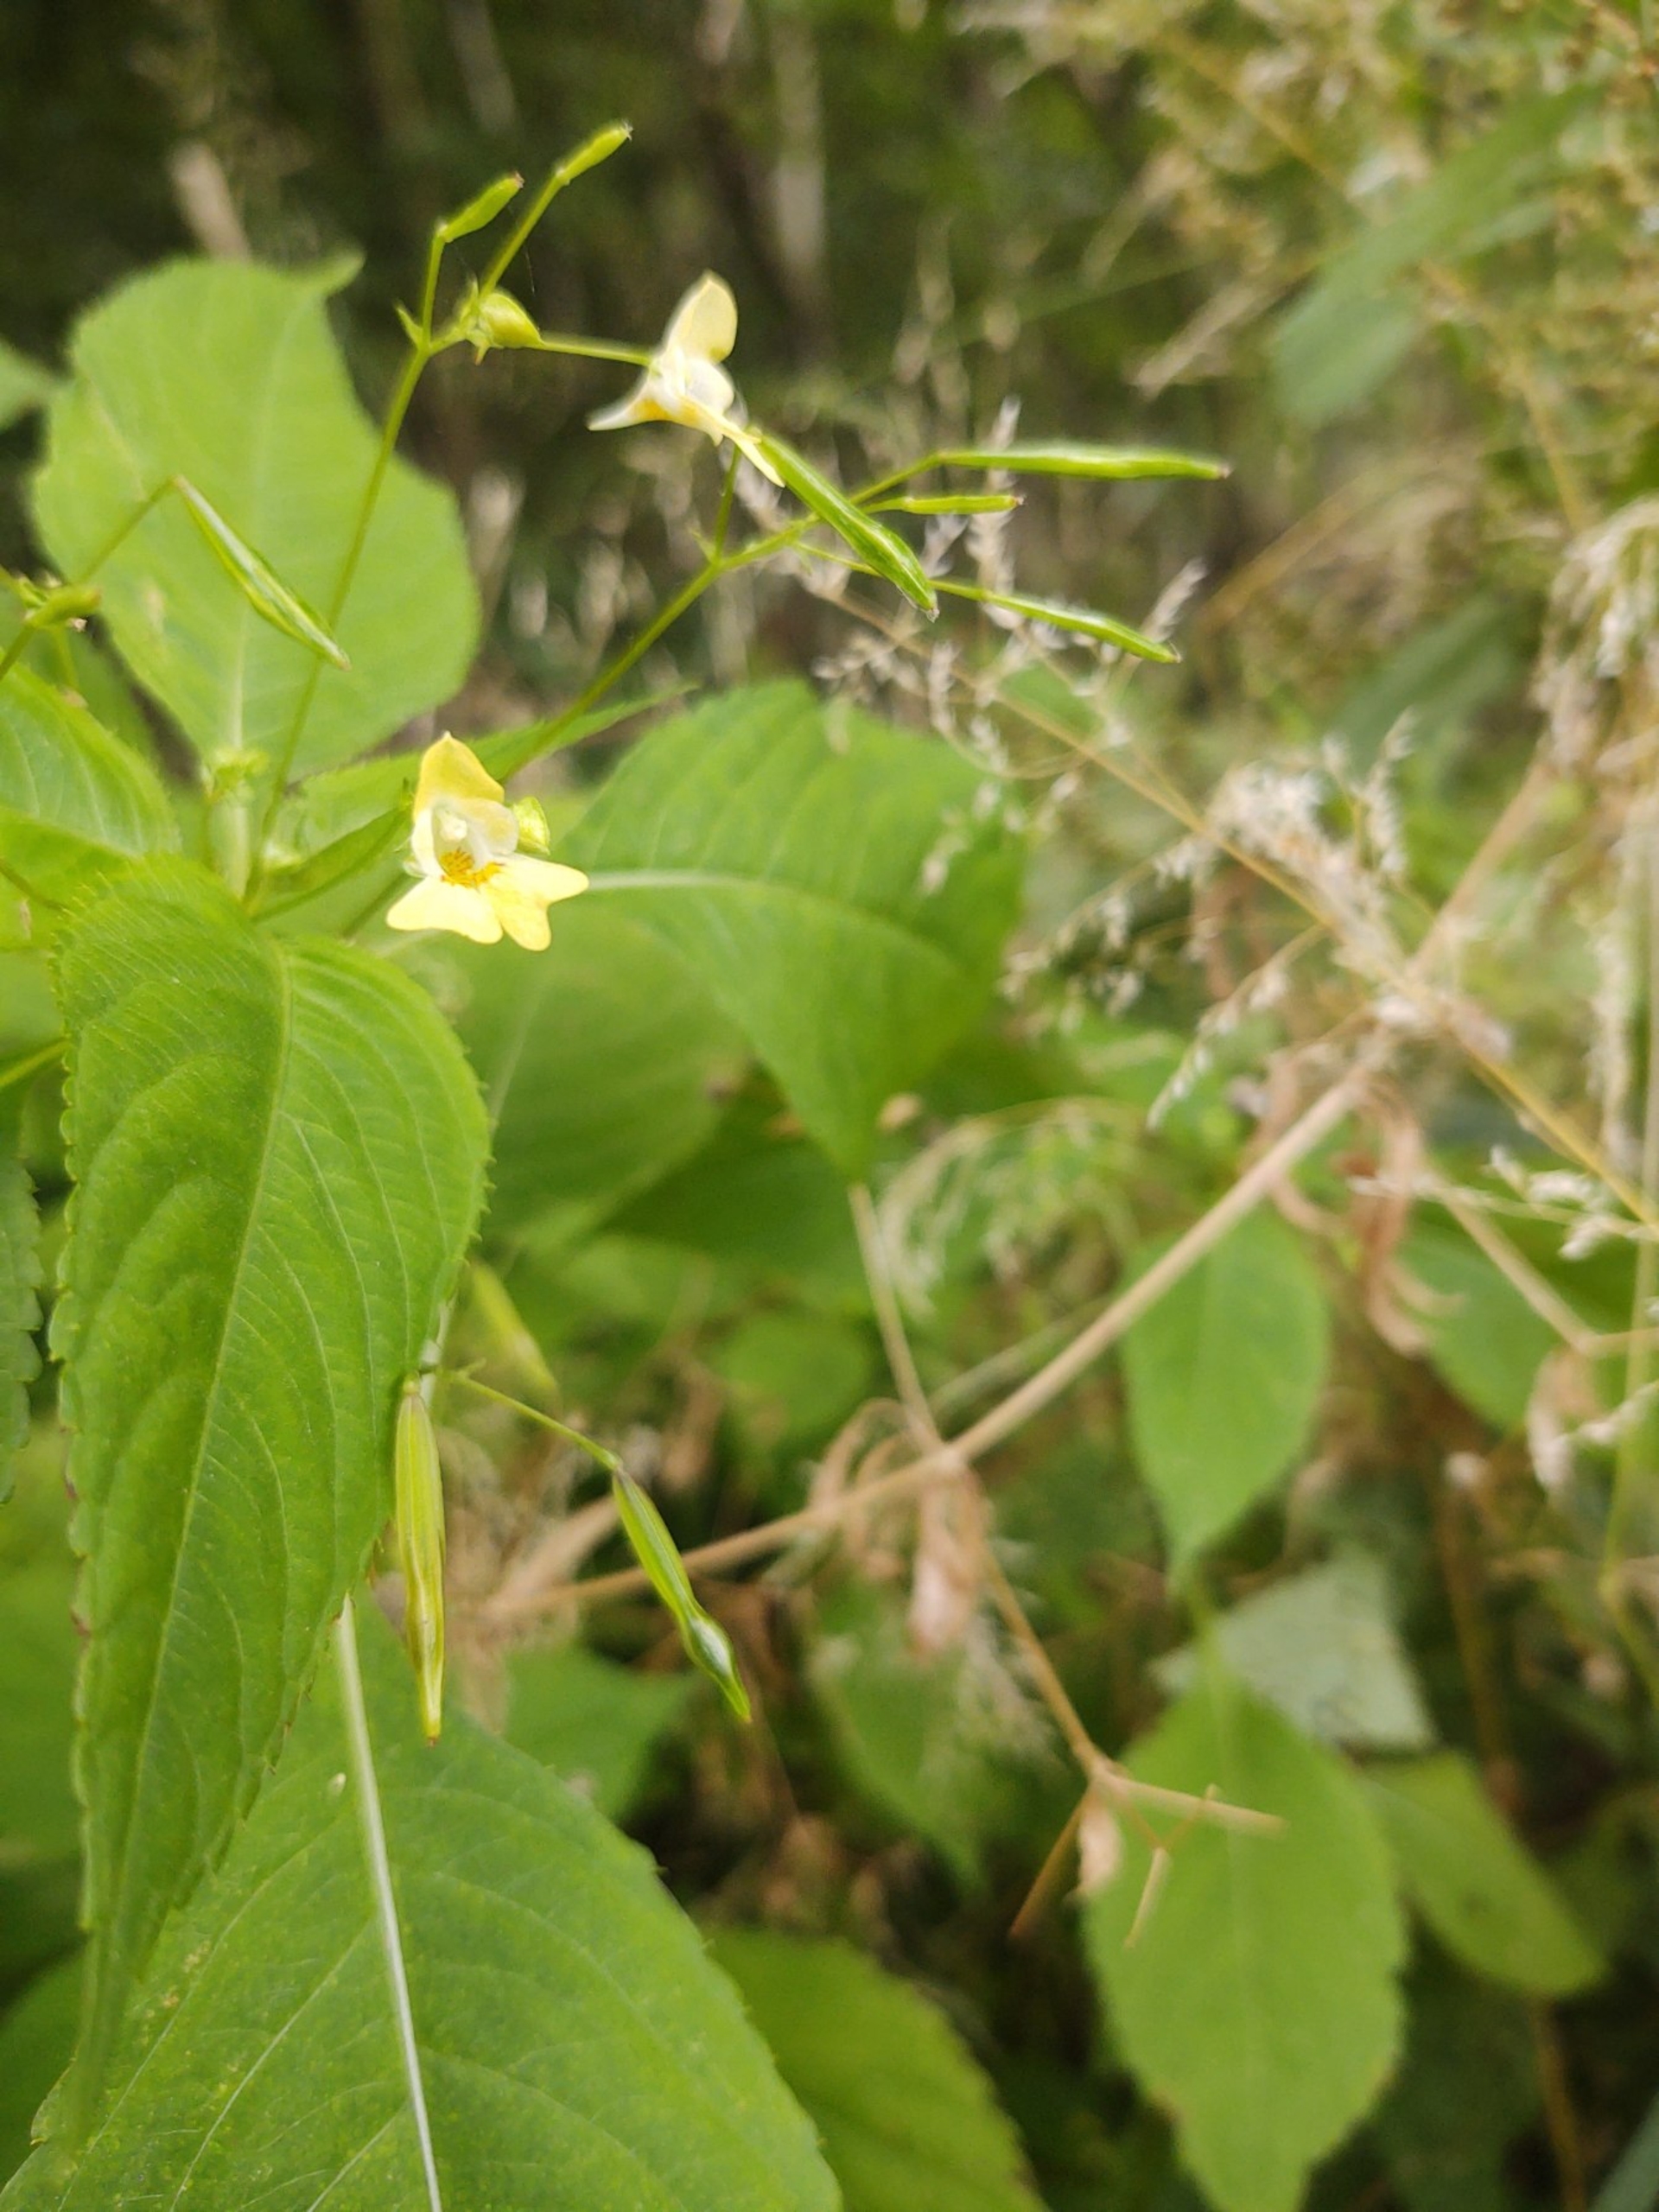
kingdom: Plantae
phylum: Tracheophyta
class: Magnoliopsida
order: Ericales
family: Balsaminaceae
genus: Impatiens
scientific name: Impatiens parviflora
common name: Småblomstret balsamin
